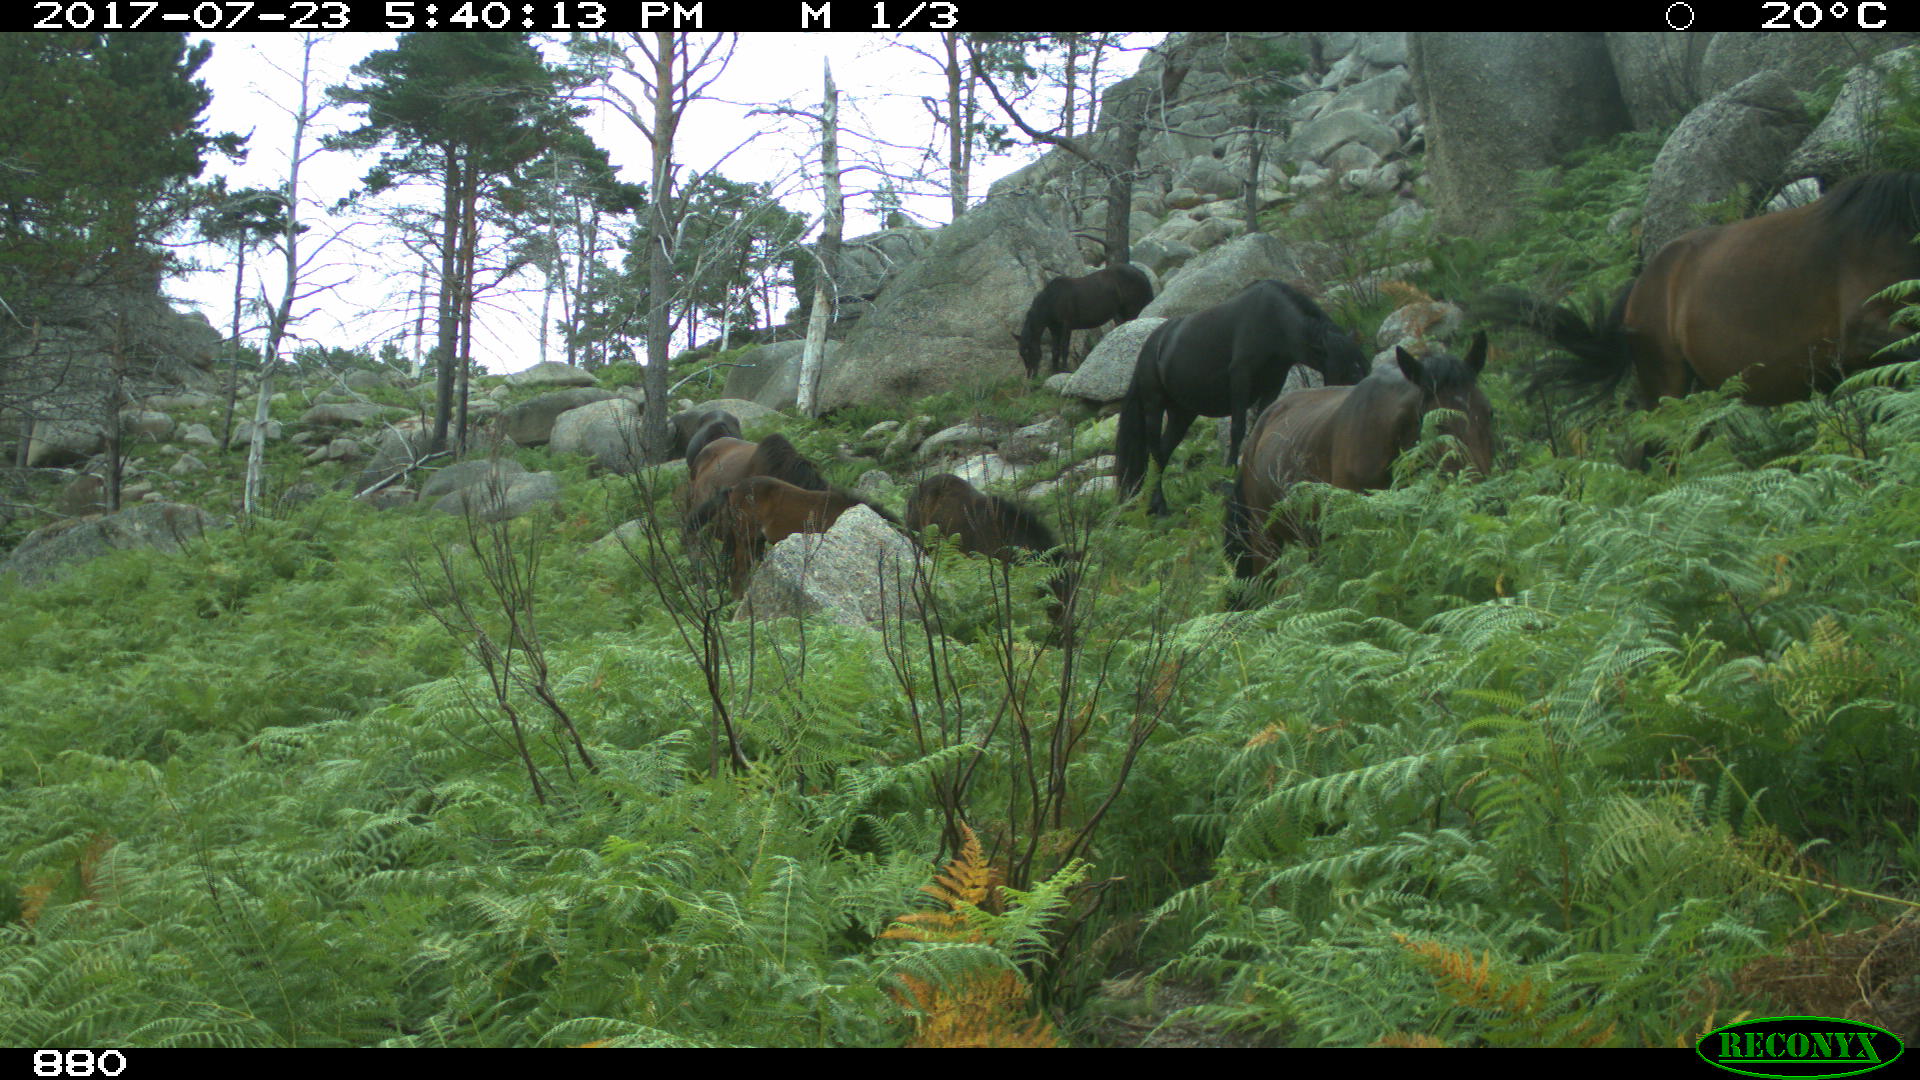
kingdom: Animalia
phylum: Chordata
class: Mammalia
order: Perissodactyla
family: Equidae
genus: Equus
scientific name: Equus caballus
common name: Horse
